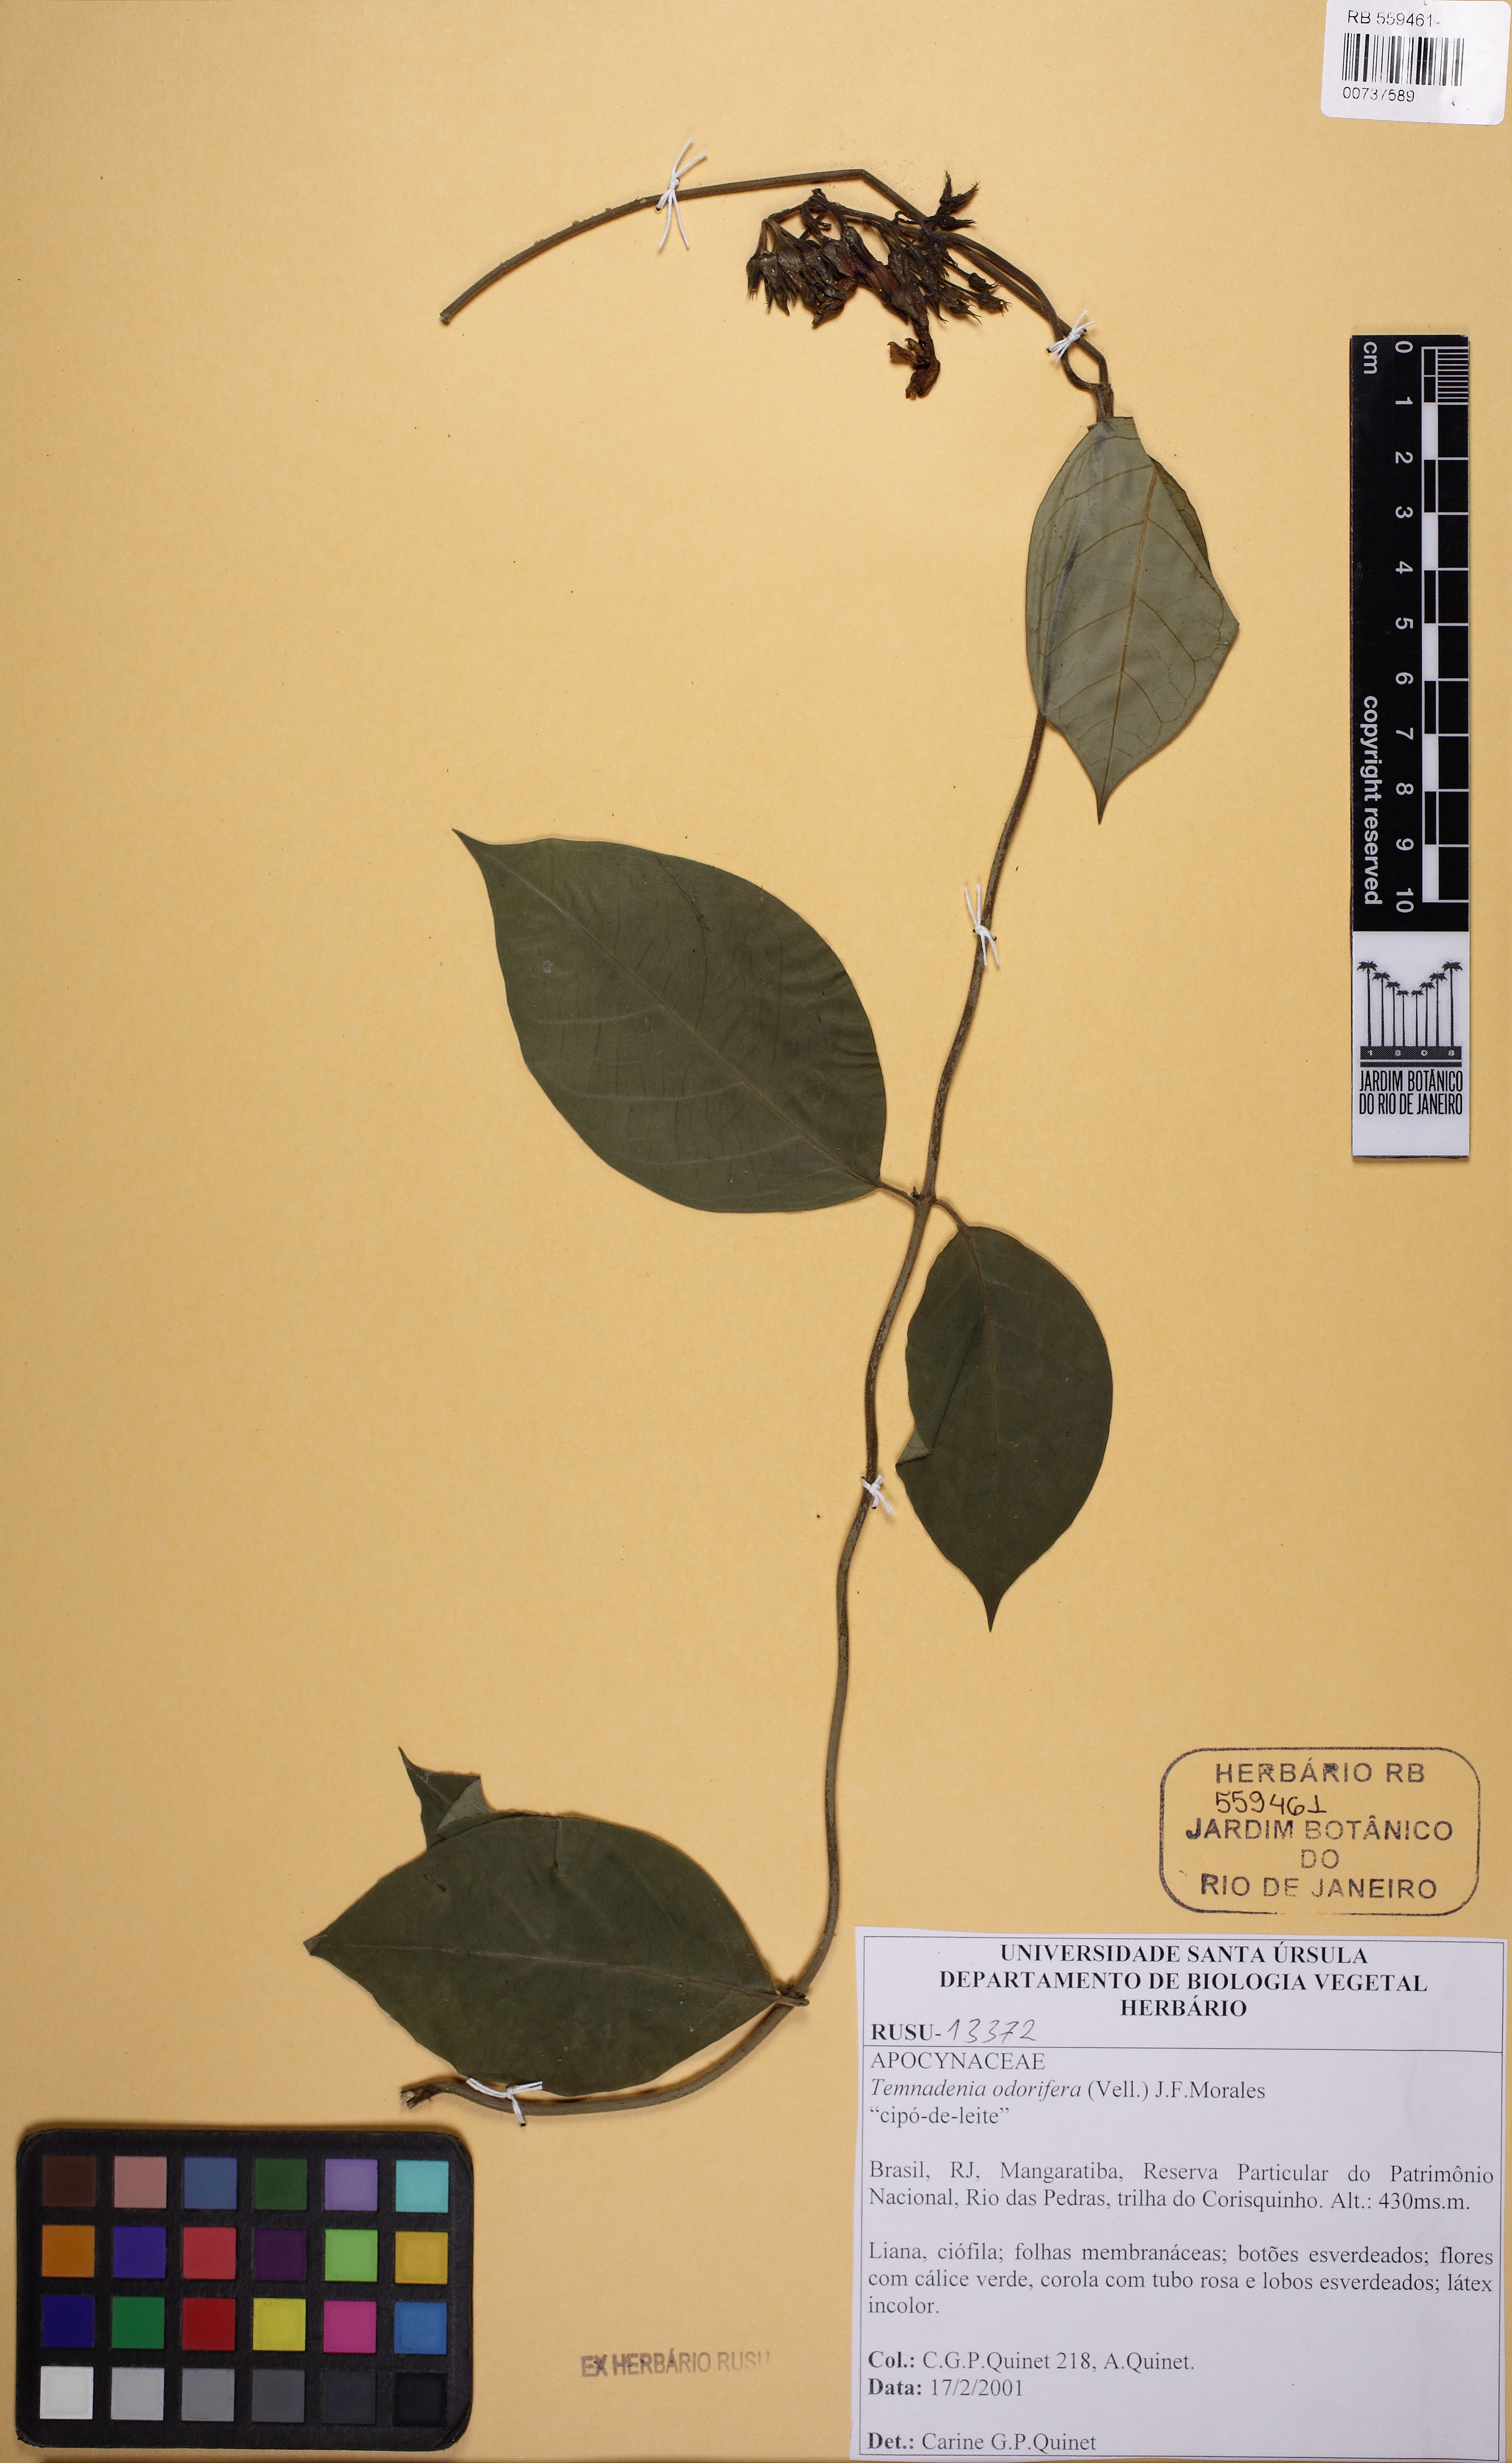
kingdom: Plantae
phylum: Tracheophyta
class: Magnoliopsida
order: Gentianales
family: Apocynaceae
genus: Temnadenia
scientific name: Temnadenia odorifera
